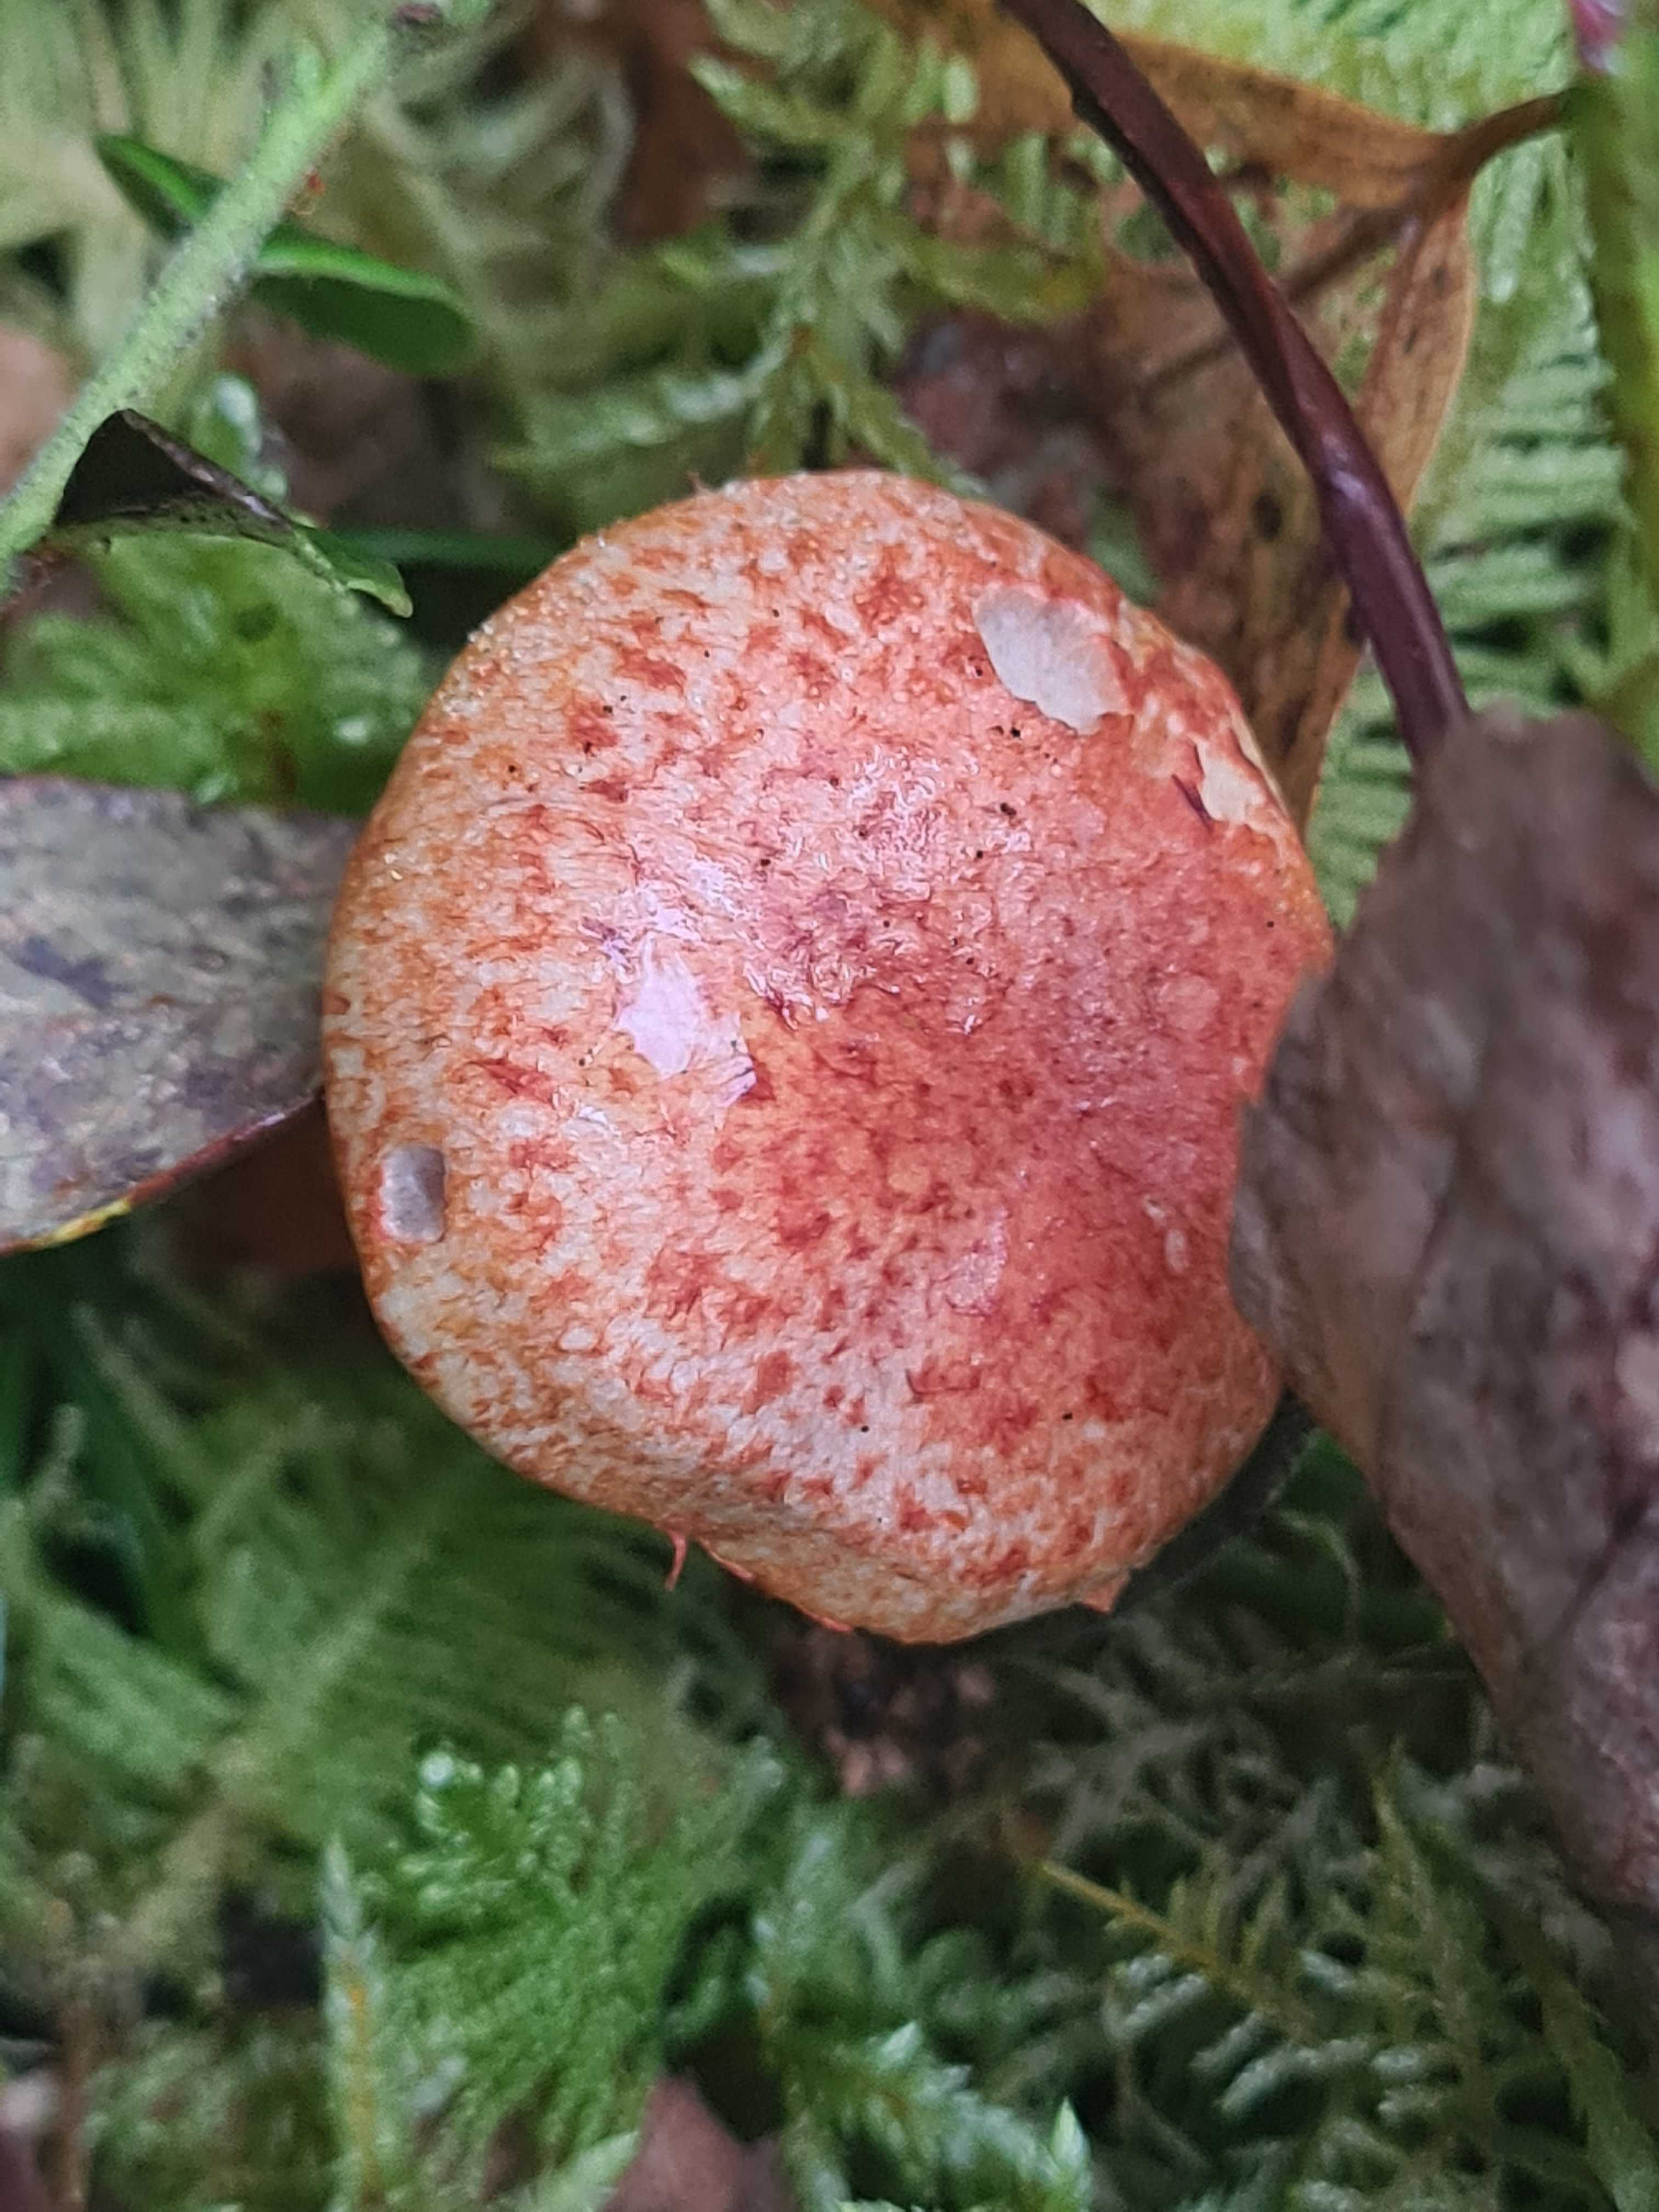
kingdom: Fungi
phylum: Basidiomycota
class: Agaricomycetes
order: Agaricales
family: Cortinariaceae
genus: Cortinarius
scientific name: Cortinarius bolaris
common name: cinnoberskællet slørhat
